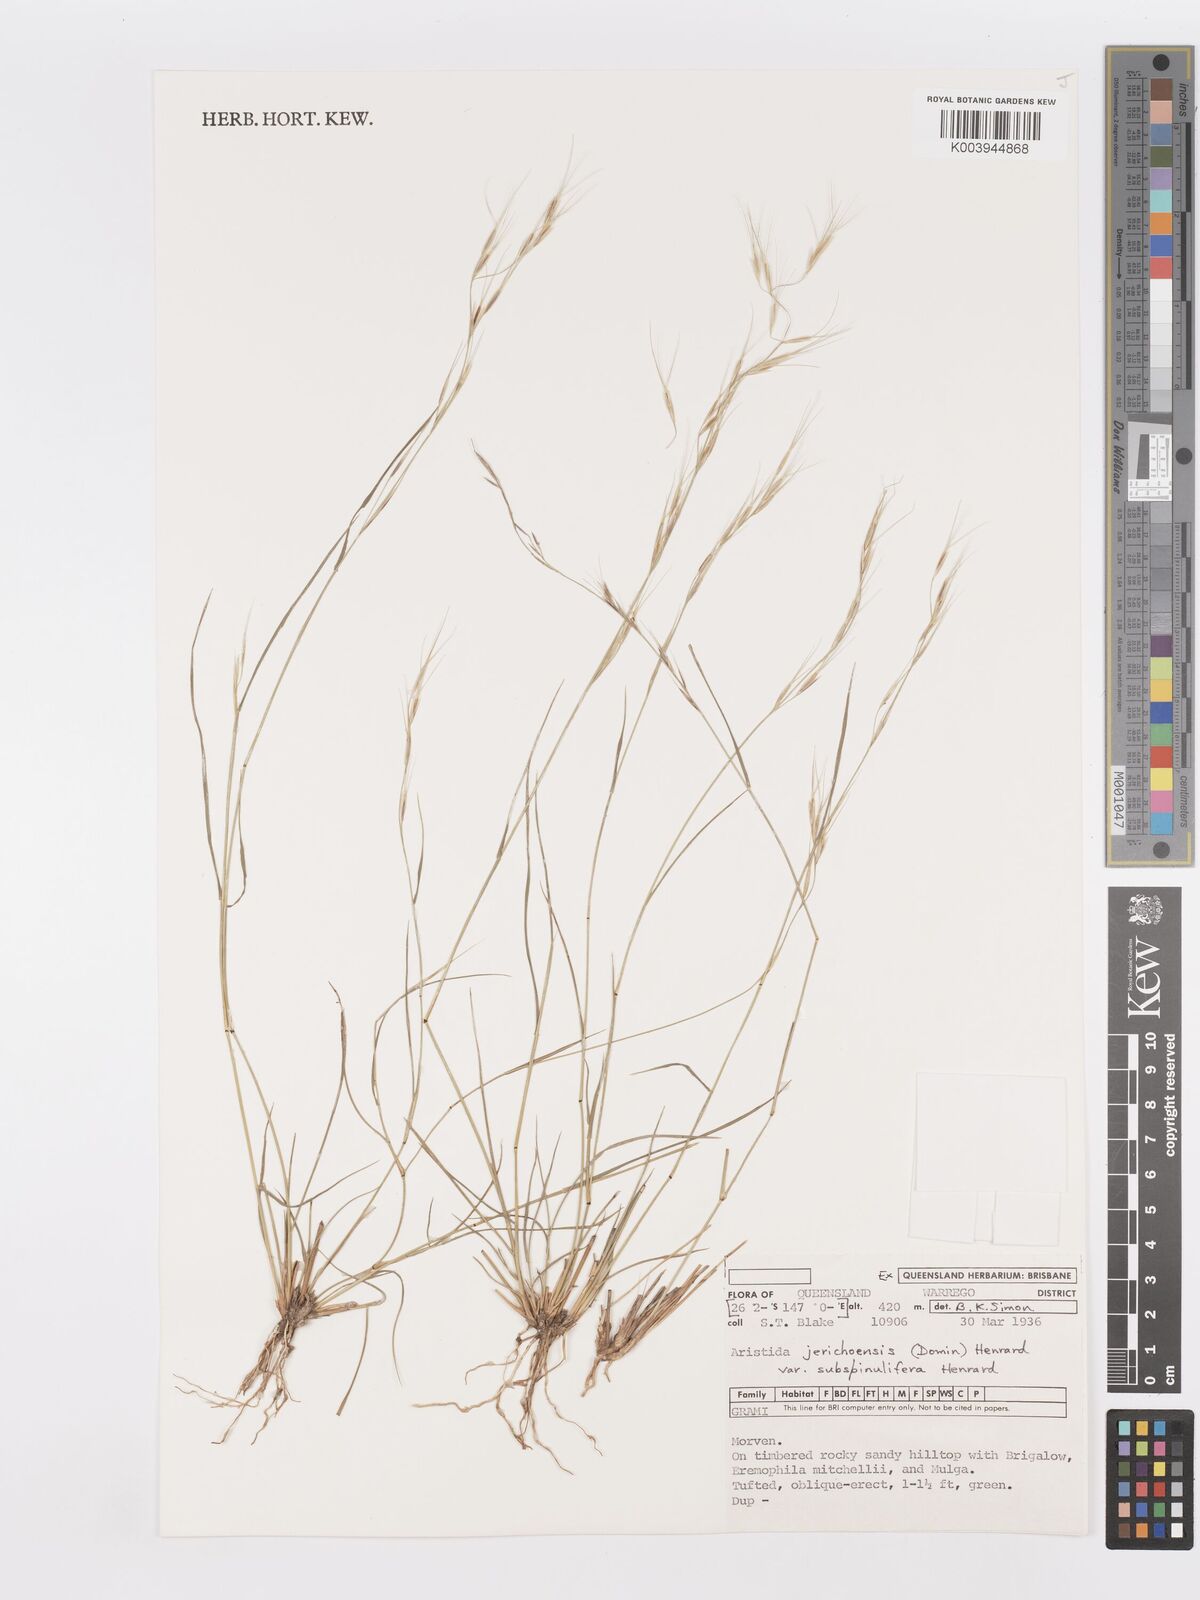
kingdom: Plantae
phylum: Tracheophyta
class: Liliopsida
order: Poales
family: Poaceae
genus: Aristida
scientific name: Aristida jerichoensis
